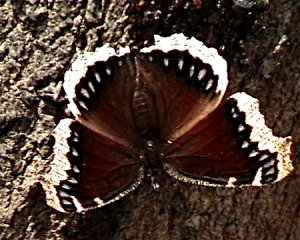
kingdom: Animalia
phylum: Arthropoda
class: Insecta
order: Lepidoptera
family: Nymphalidae
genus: Nymphalis
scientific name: Nymphalis antiopa
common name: Mourning Cloak
